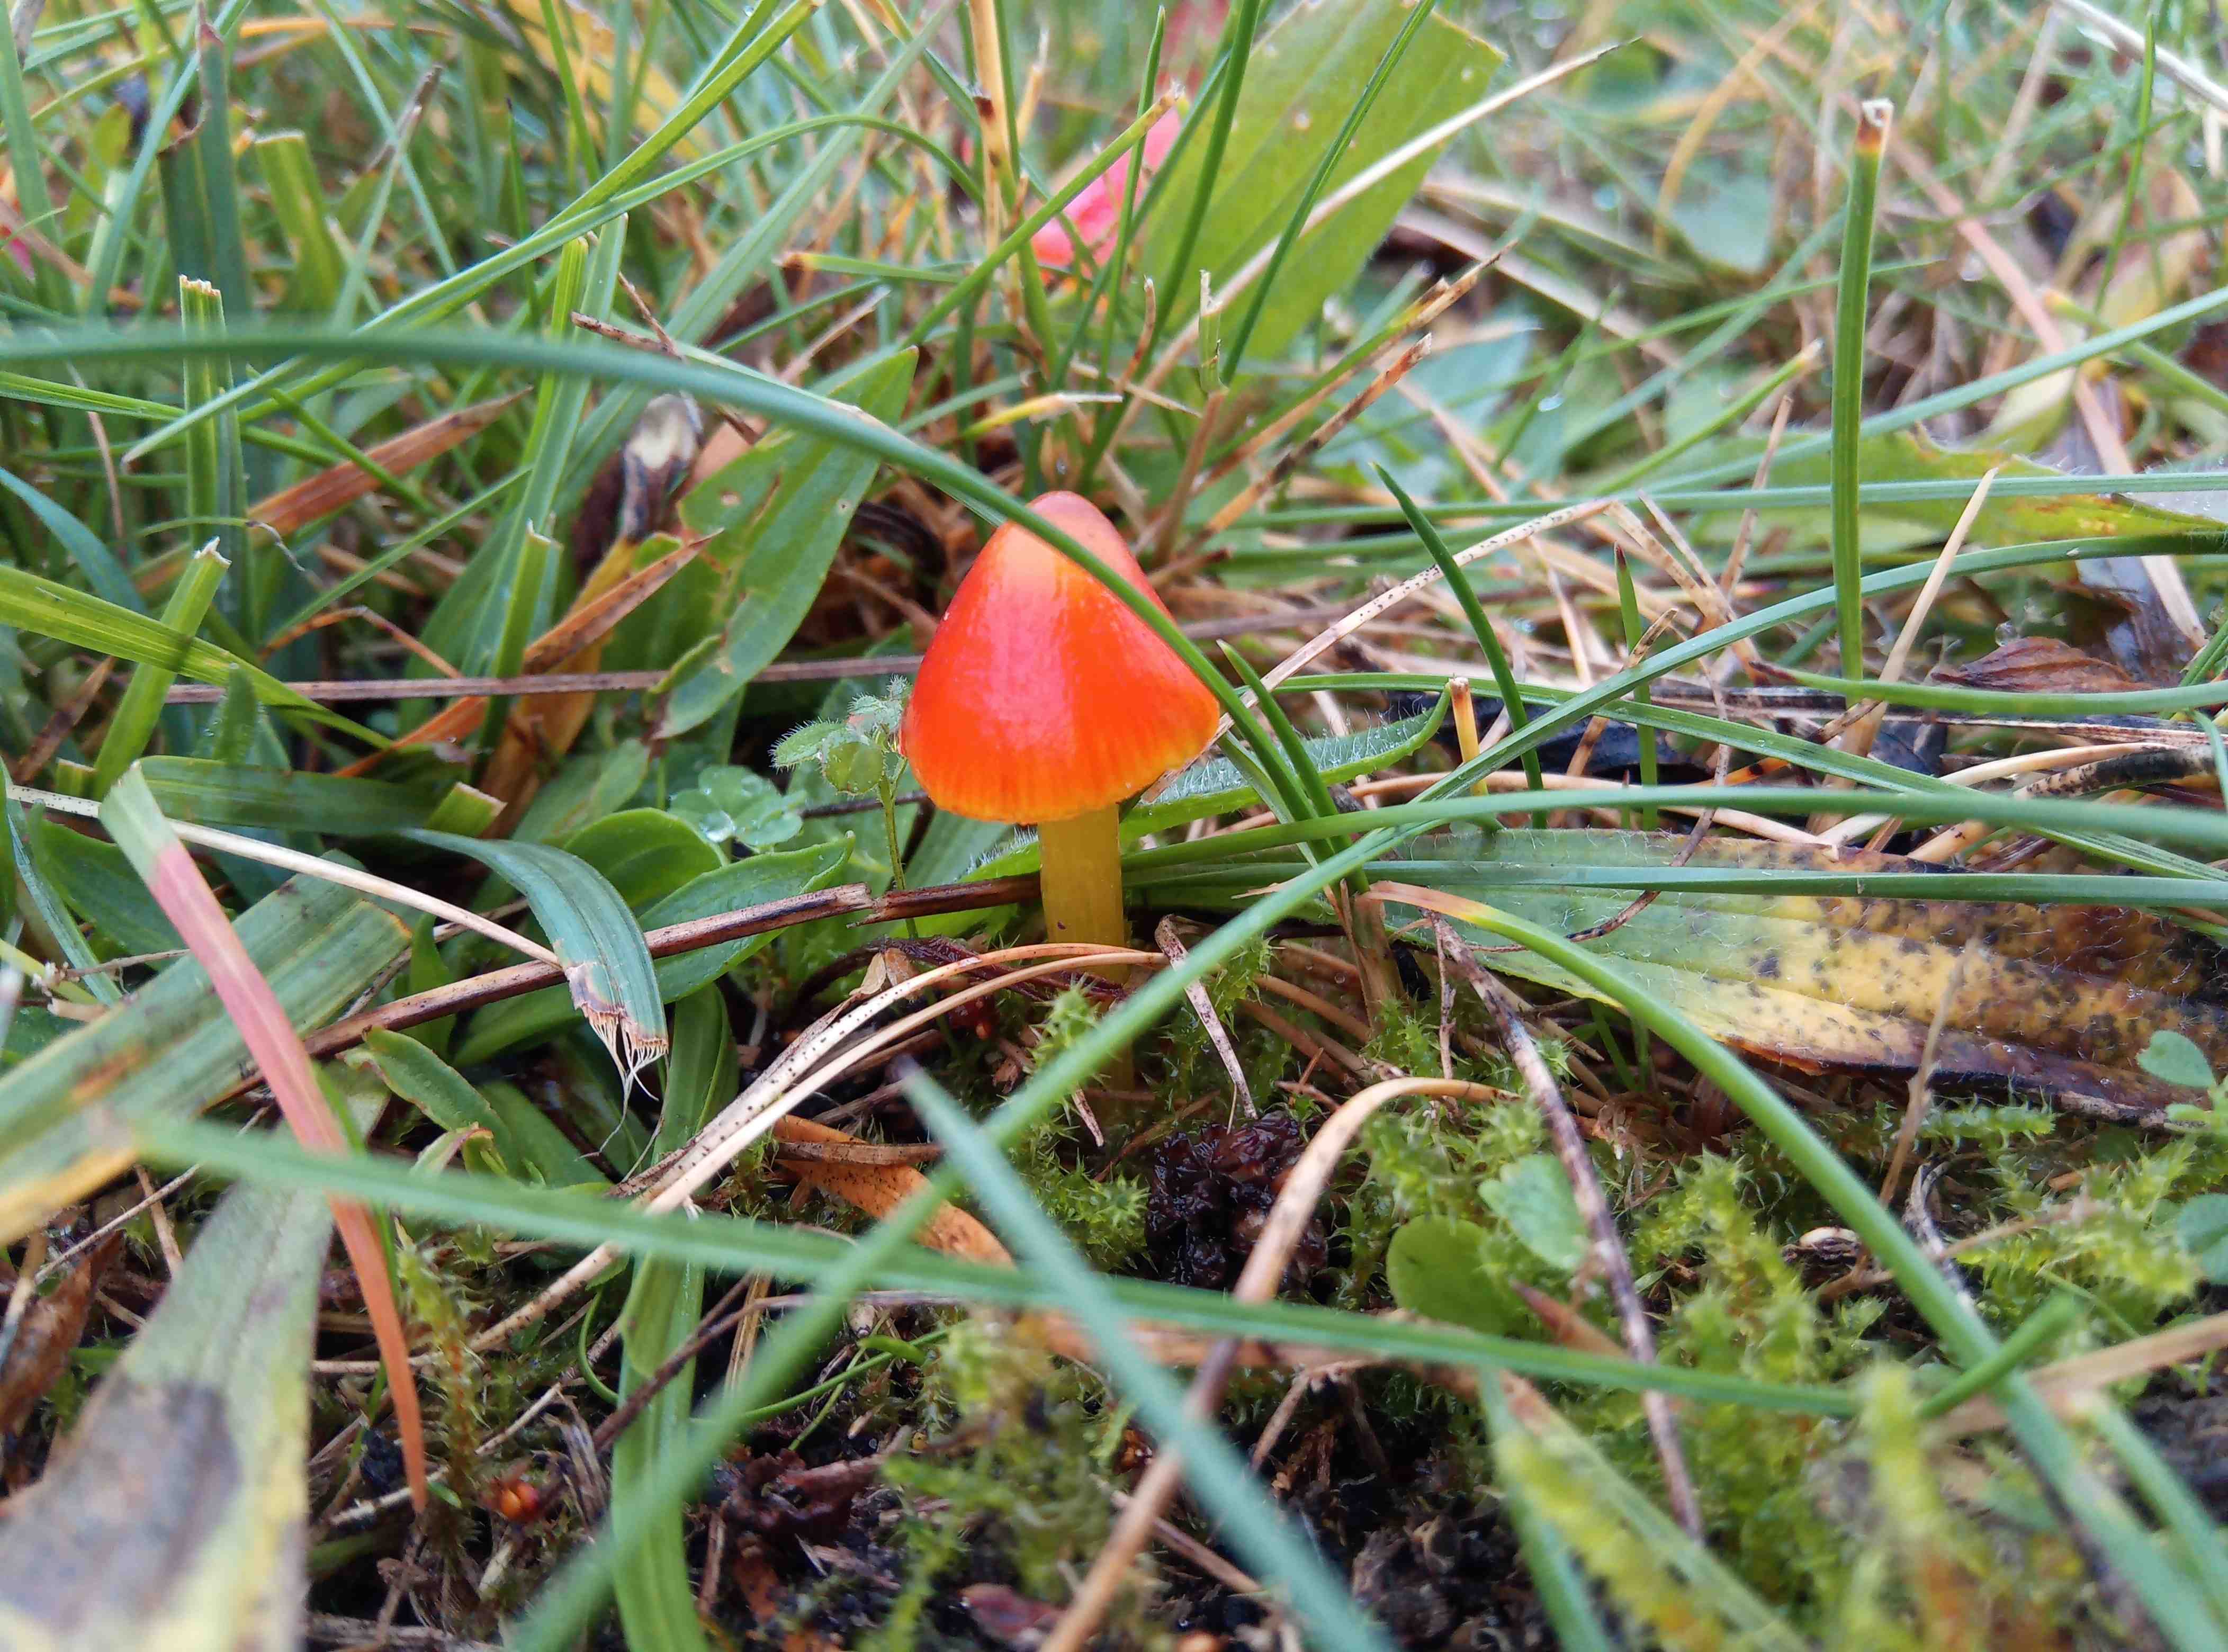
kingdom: Fungi
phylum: Basidiomycota
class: Agaricomycetes
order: Agaricales
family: Hygrophoraceae
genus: Hygrocybe
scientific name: Hygrocybe
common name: vokshat
